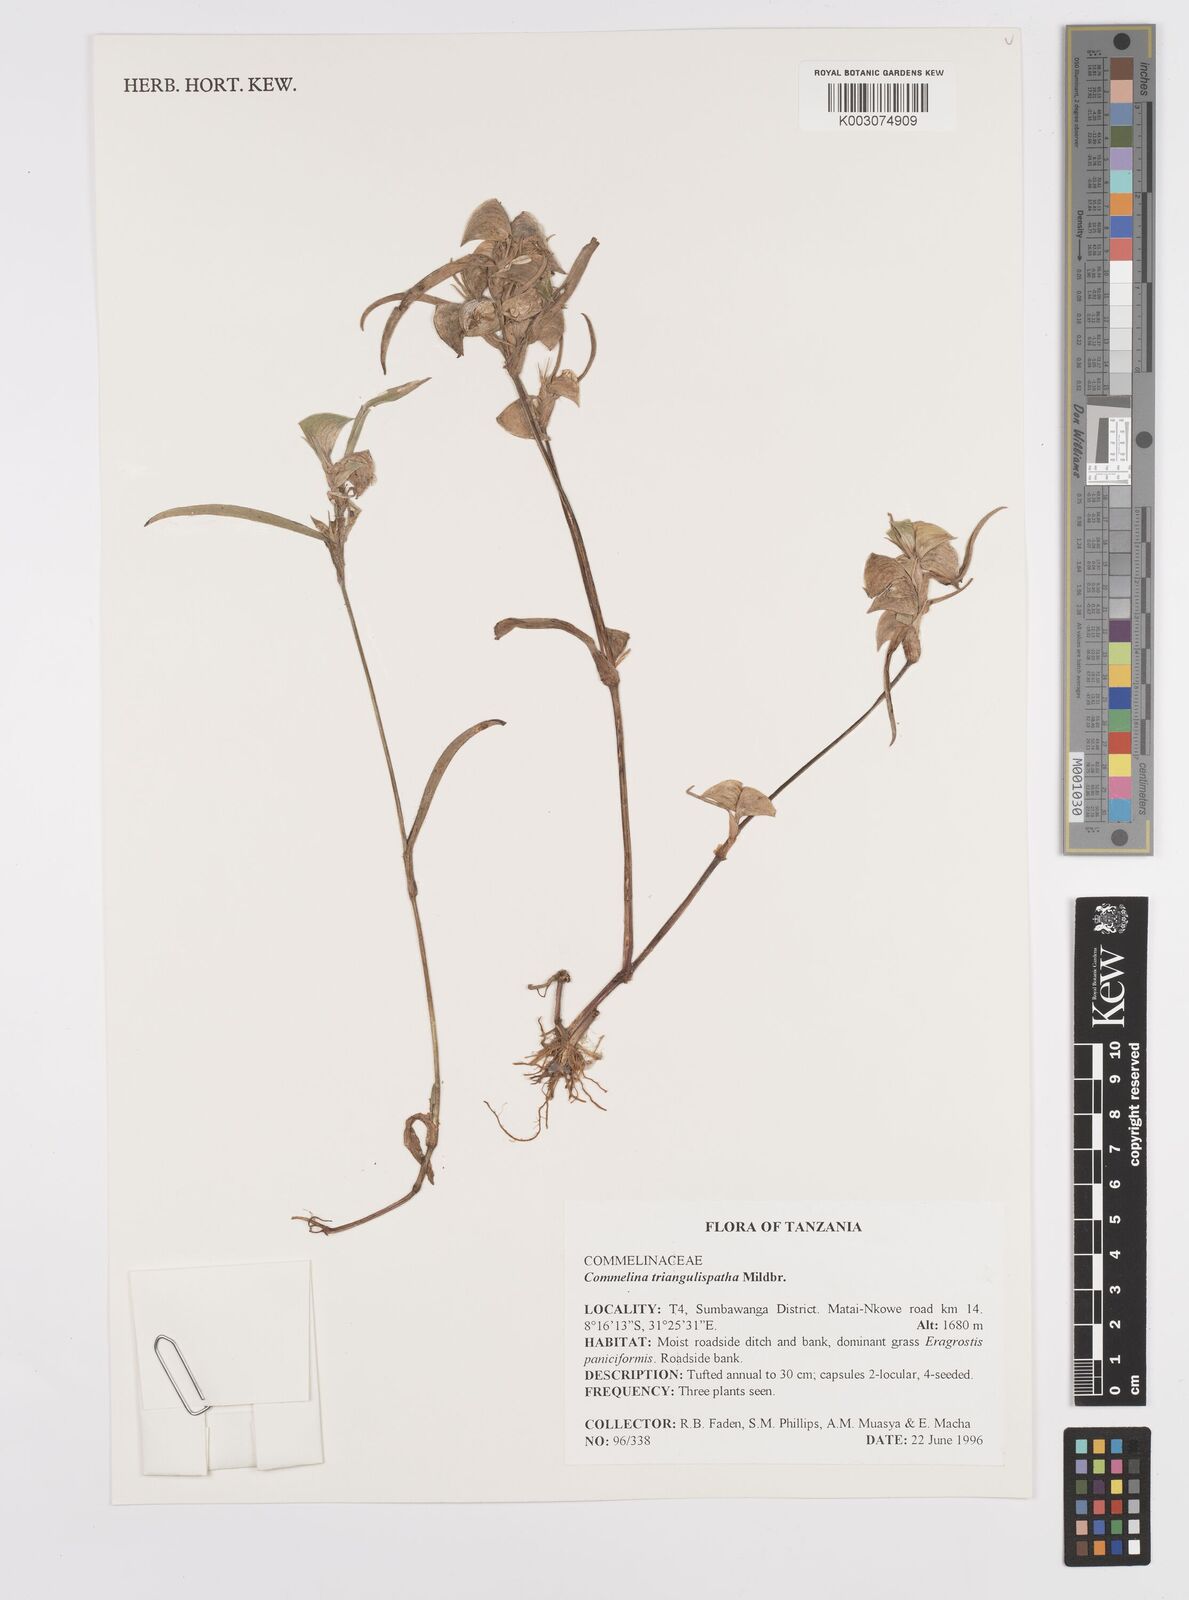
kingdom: Plantae
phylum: Tracheophyta
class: Liliopsida
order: Commelinales
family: Commelinaceae
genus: Commelina
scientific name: Commelina triangulispatha
